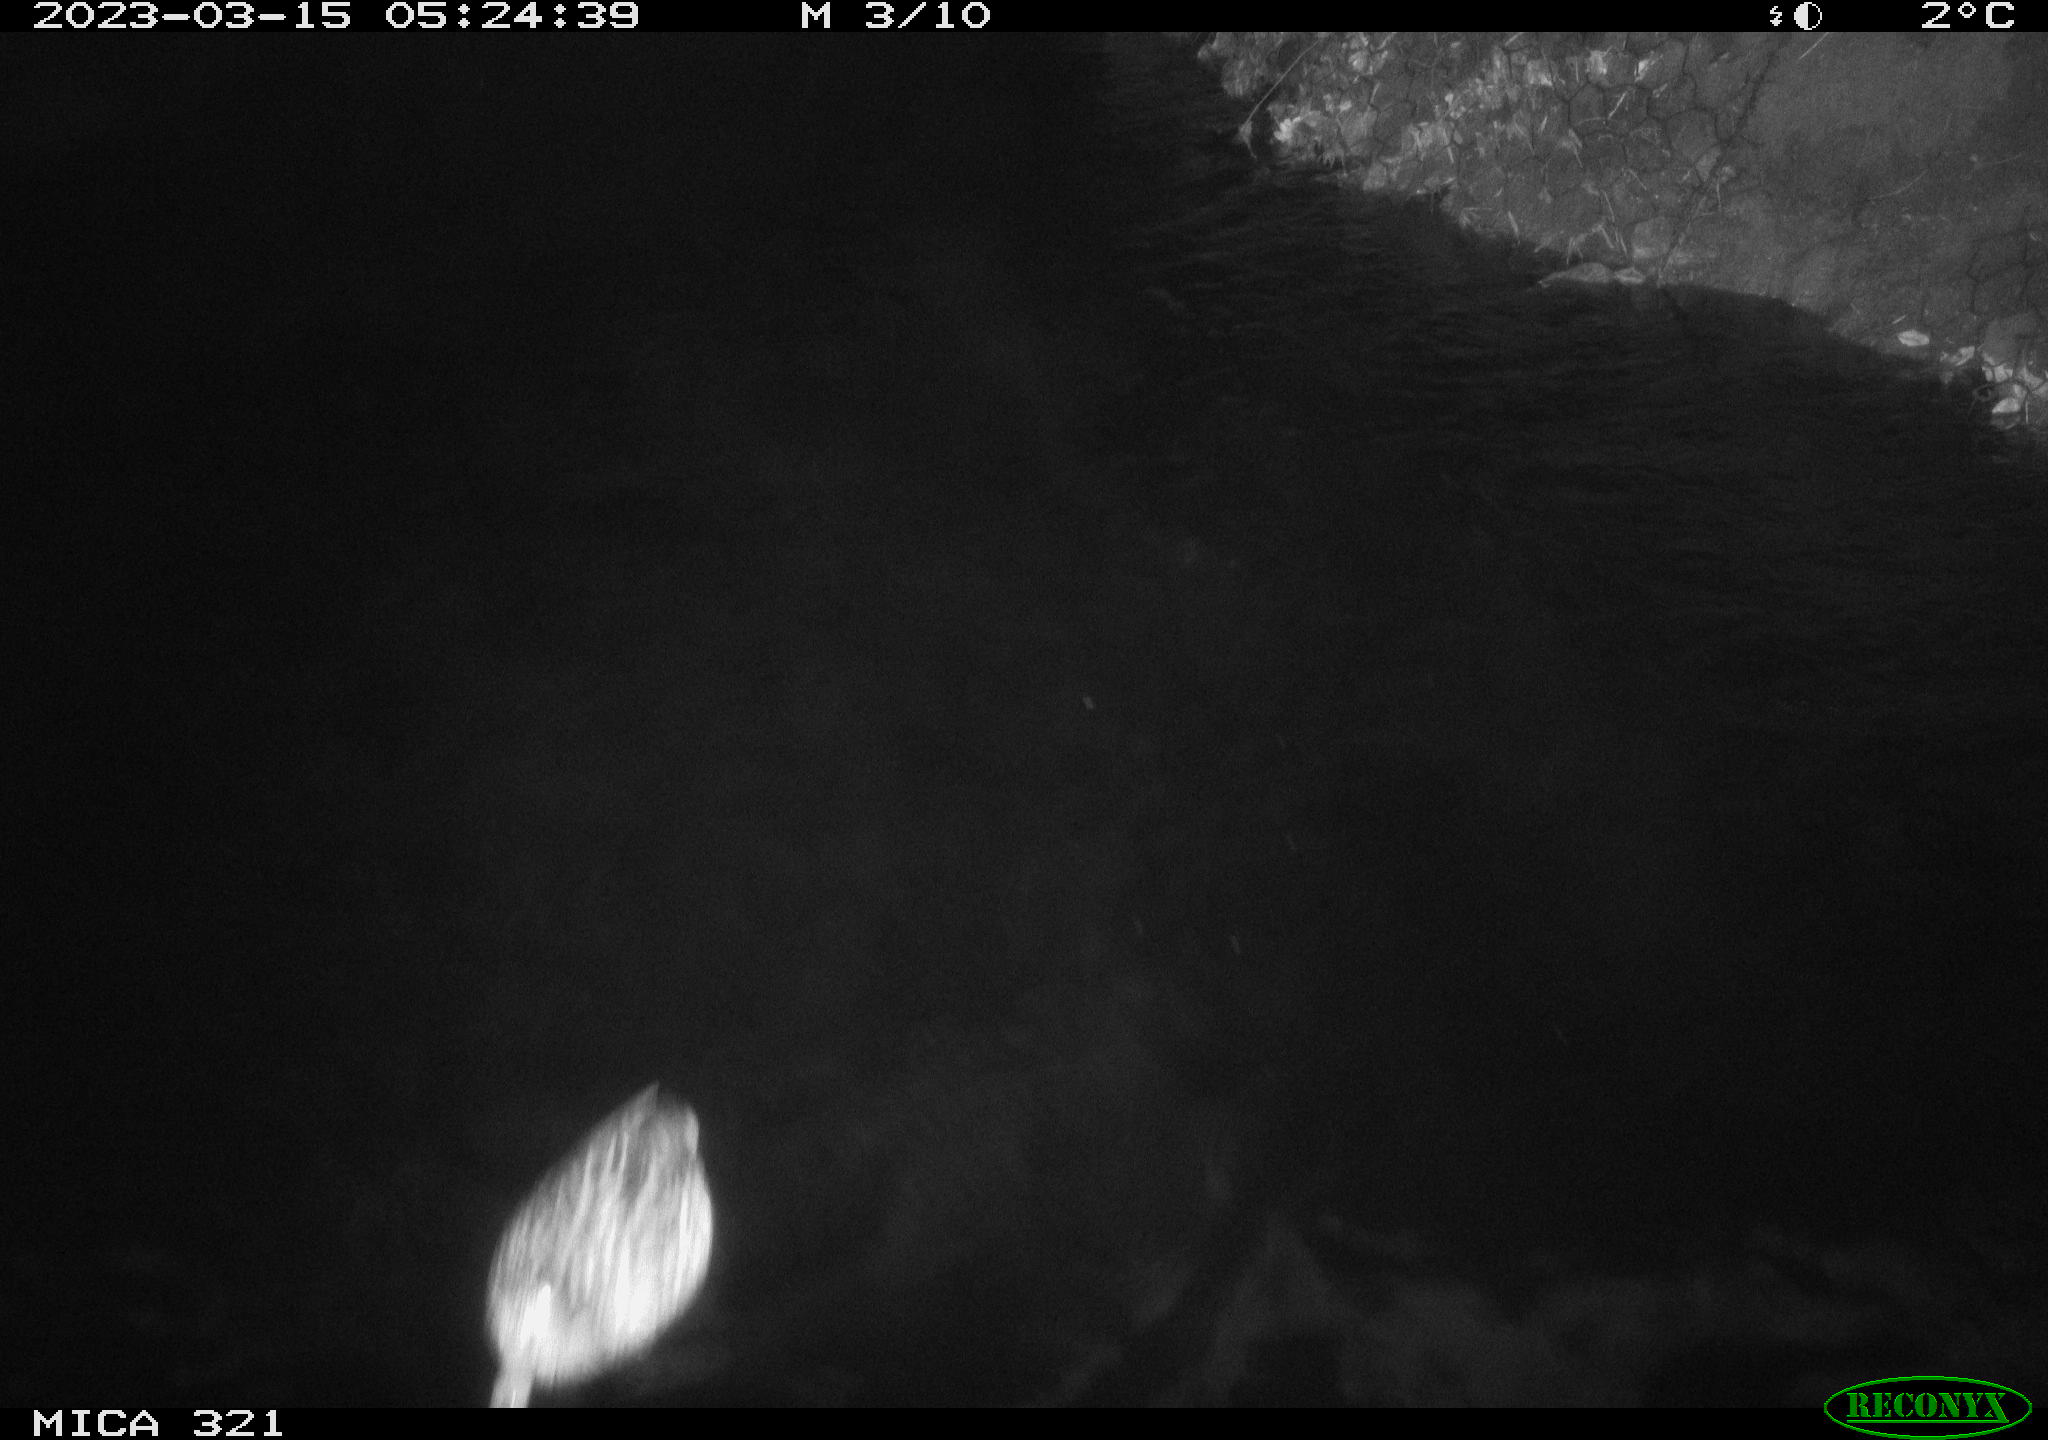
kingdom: Animalia
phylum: Chordata
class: Mammalia
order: Rodentia
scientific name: Rodentia
